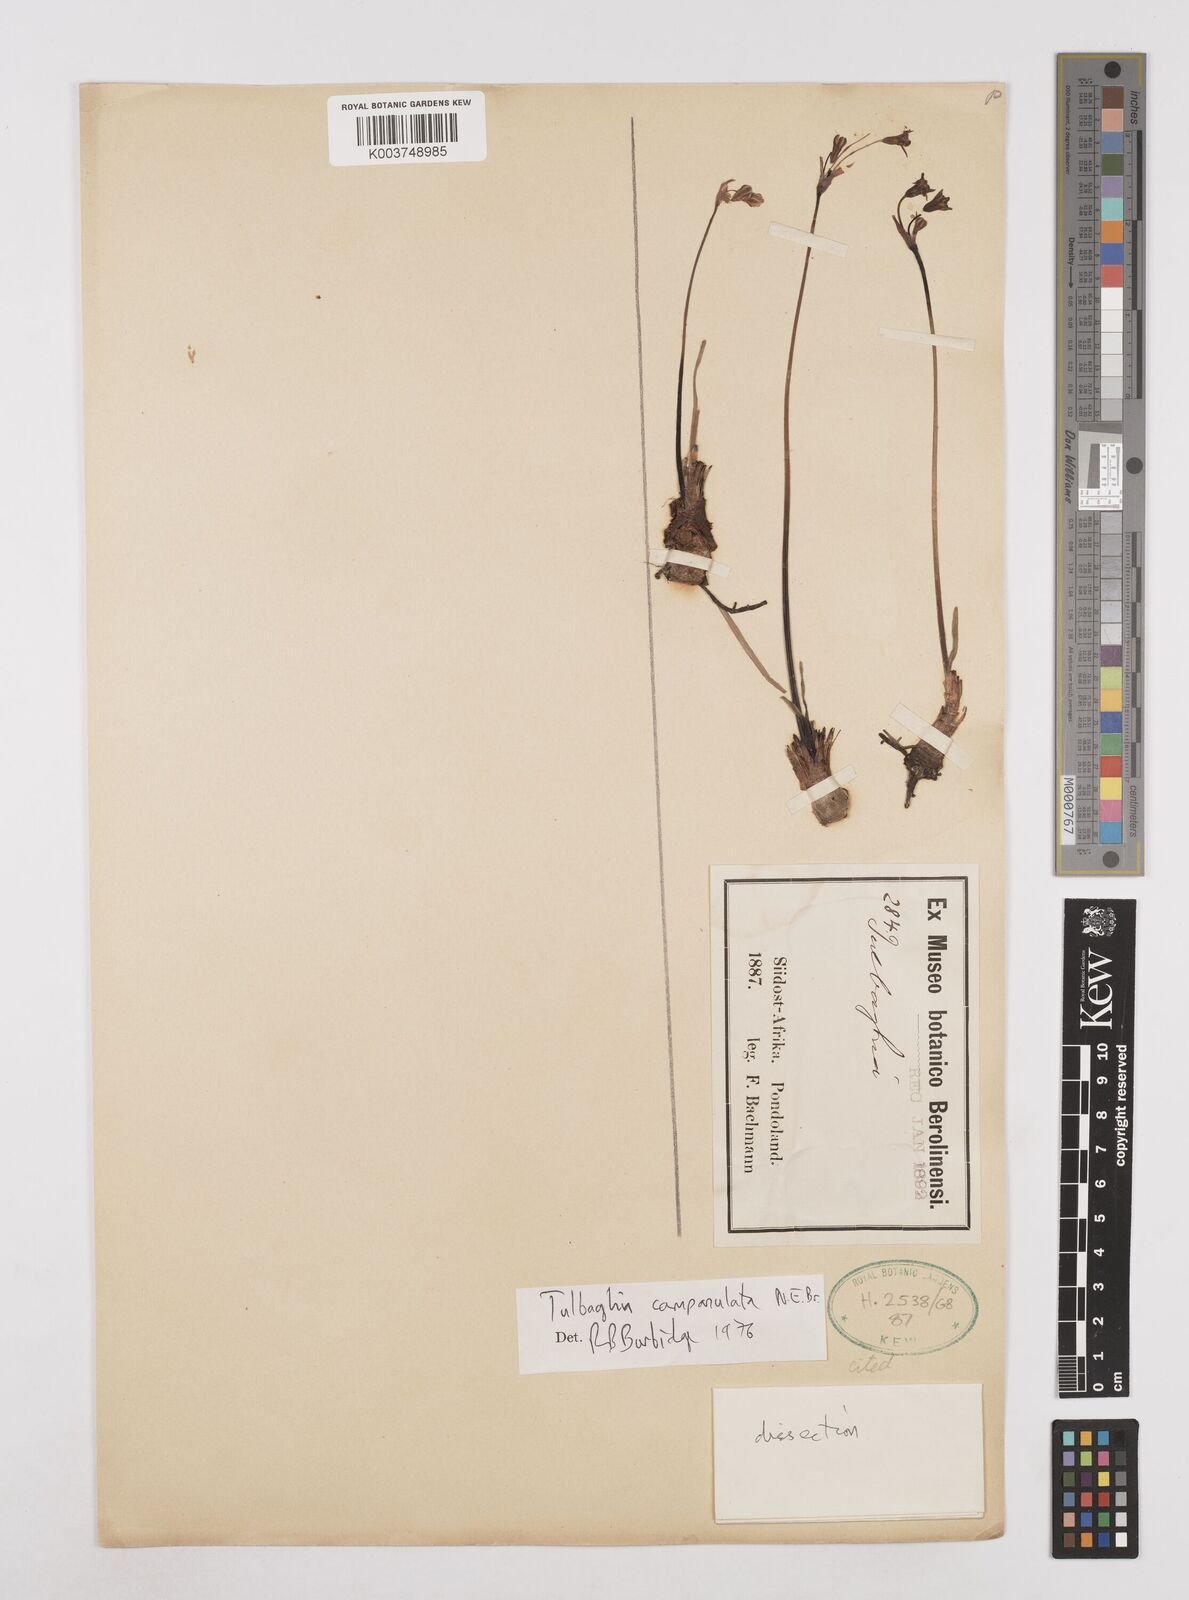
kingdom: Plantae
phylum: Tracheophyta
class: Liliopsida
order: Asparagales
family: Amaryllidaceae
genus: Tulbaghia
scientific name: Tulbaghia cernua
